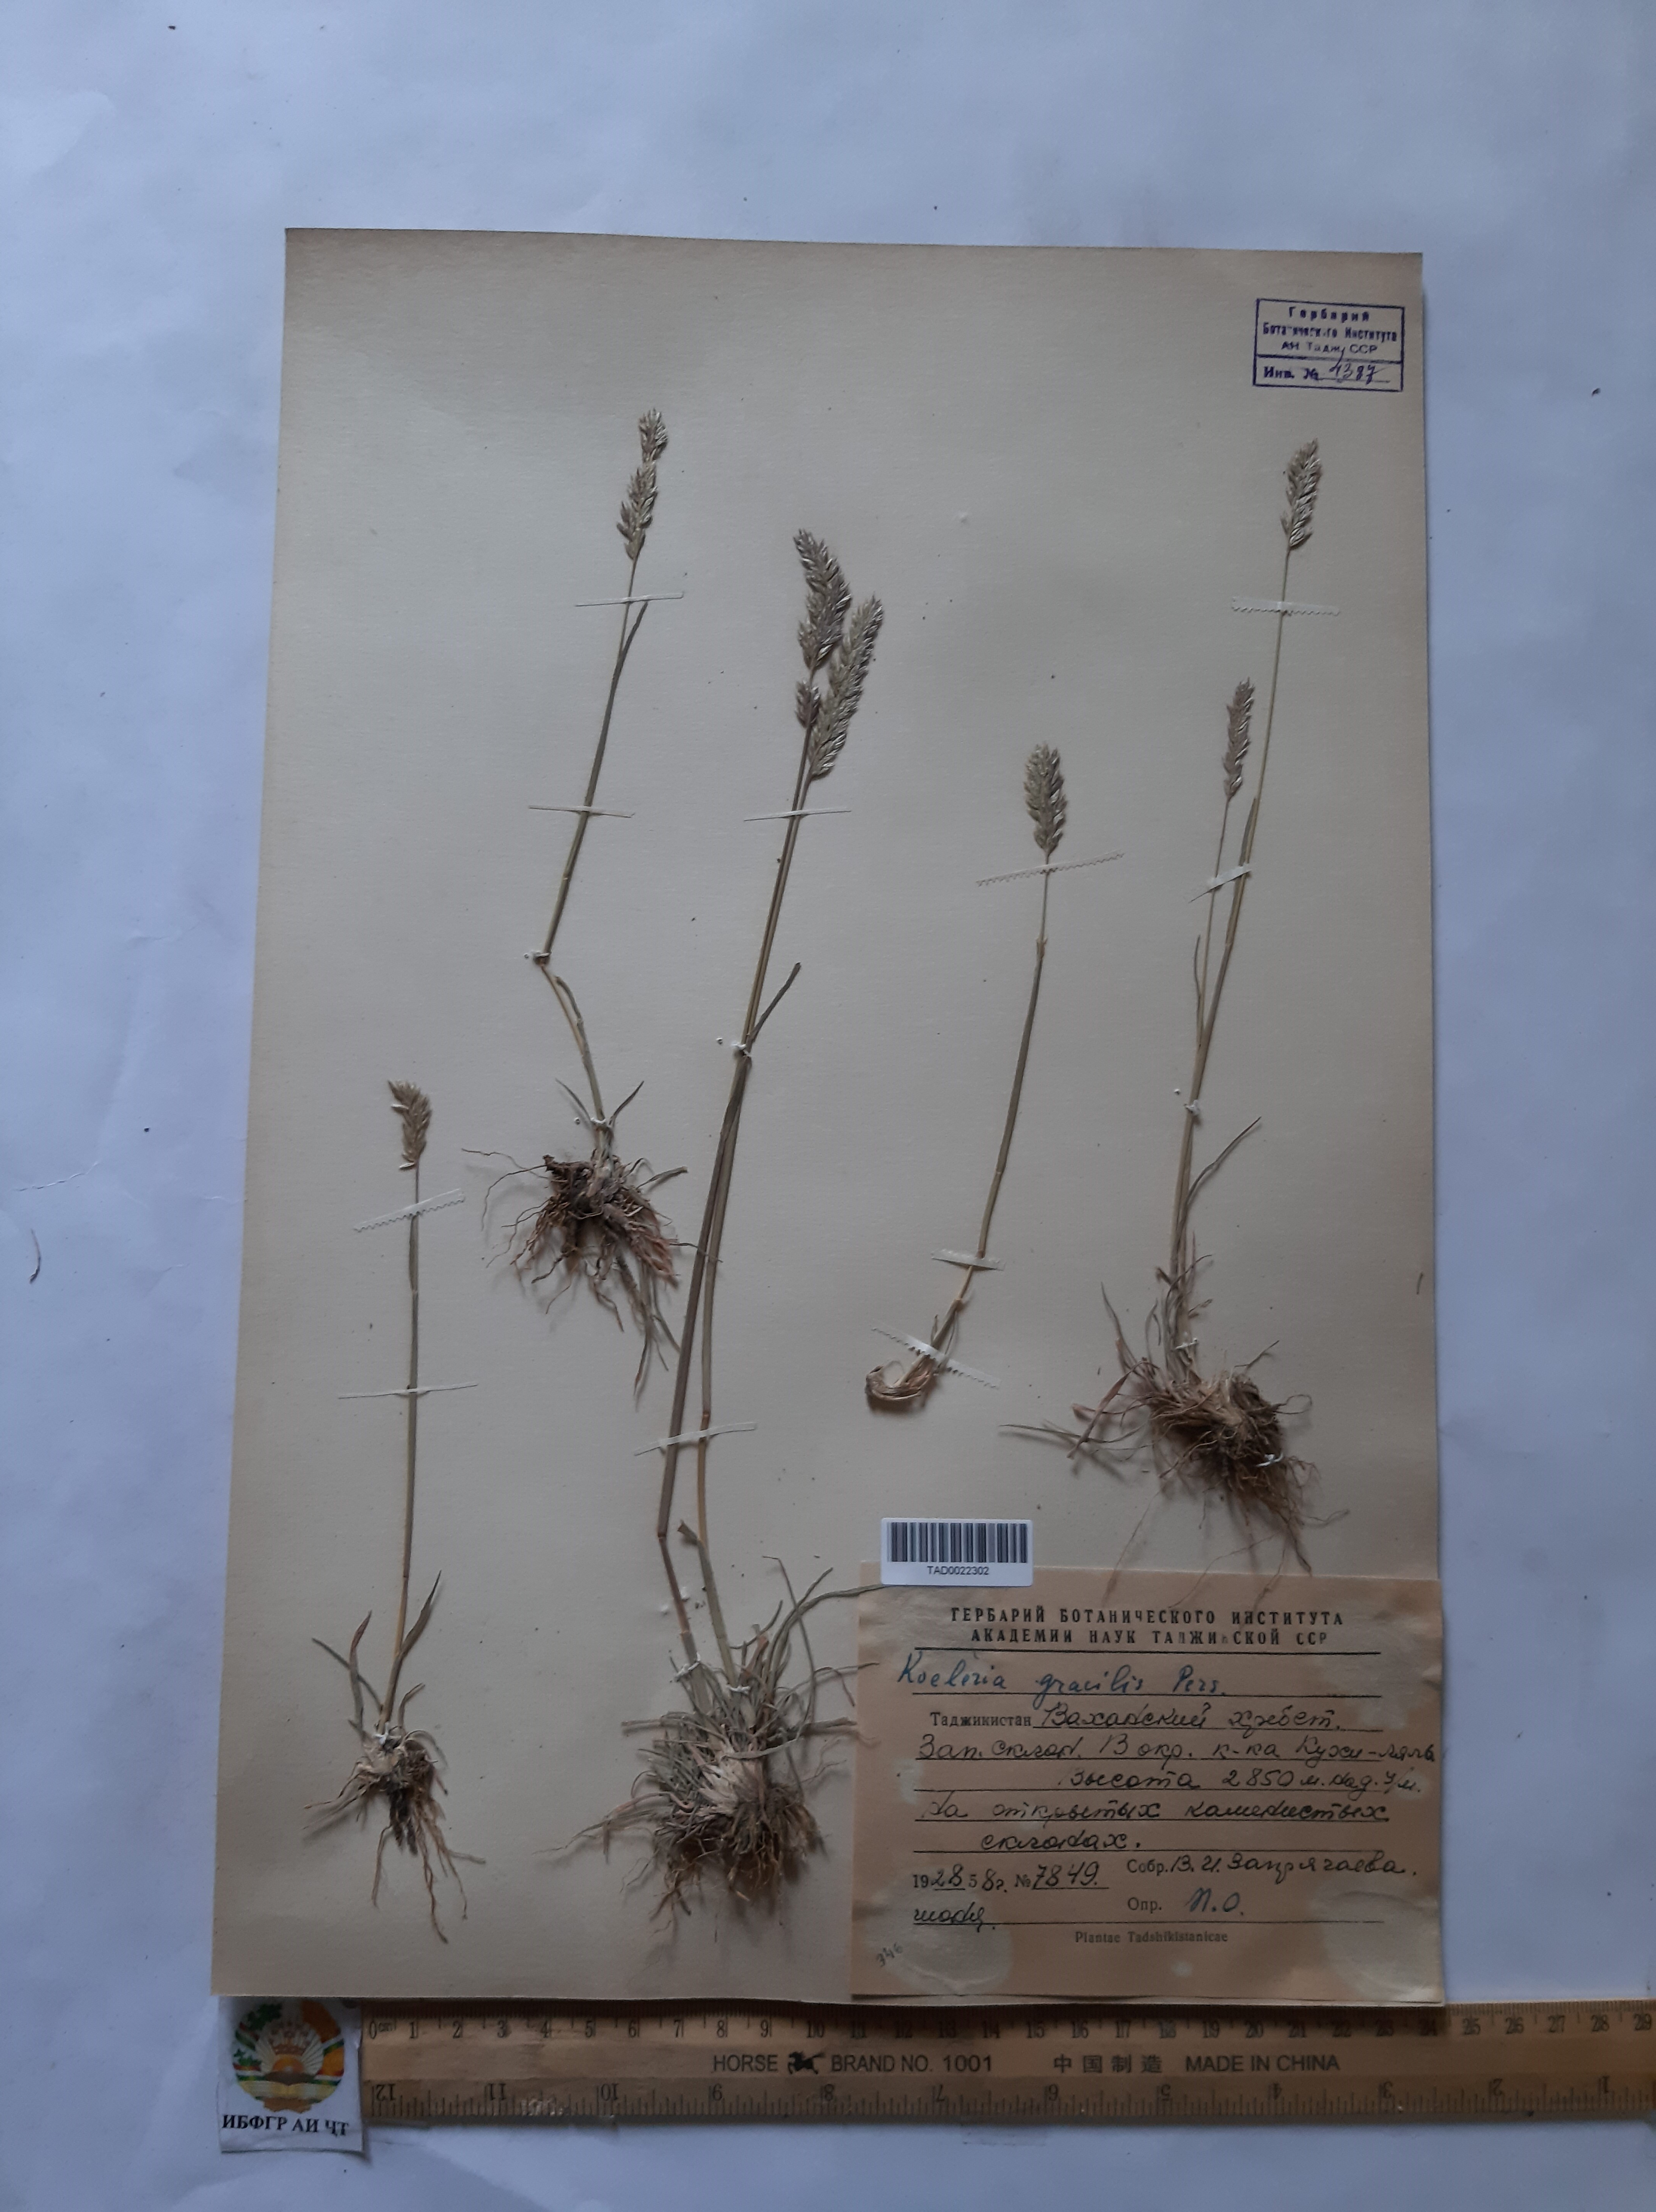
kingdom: Plantae
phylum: Tracheophyta
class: Liliopsida
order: Poales
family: Poaceae
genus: Koeleria
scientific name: Koeleria macrantha
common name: Crested hair-grass
